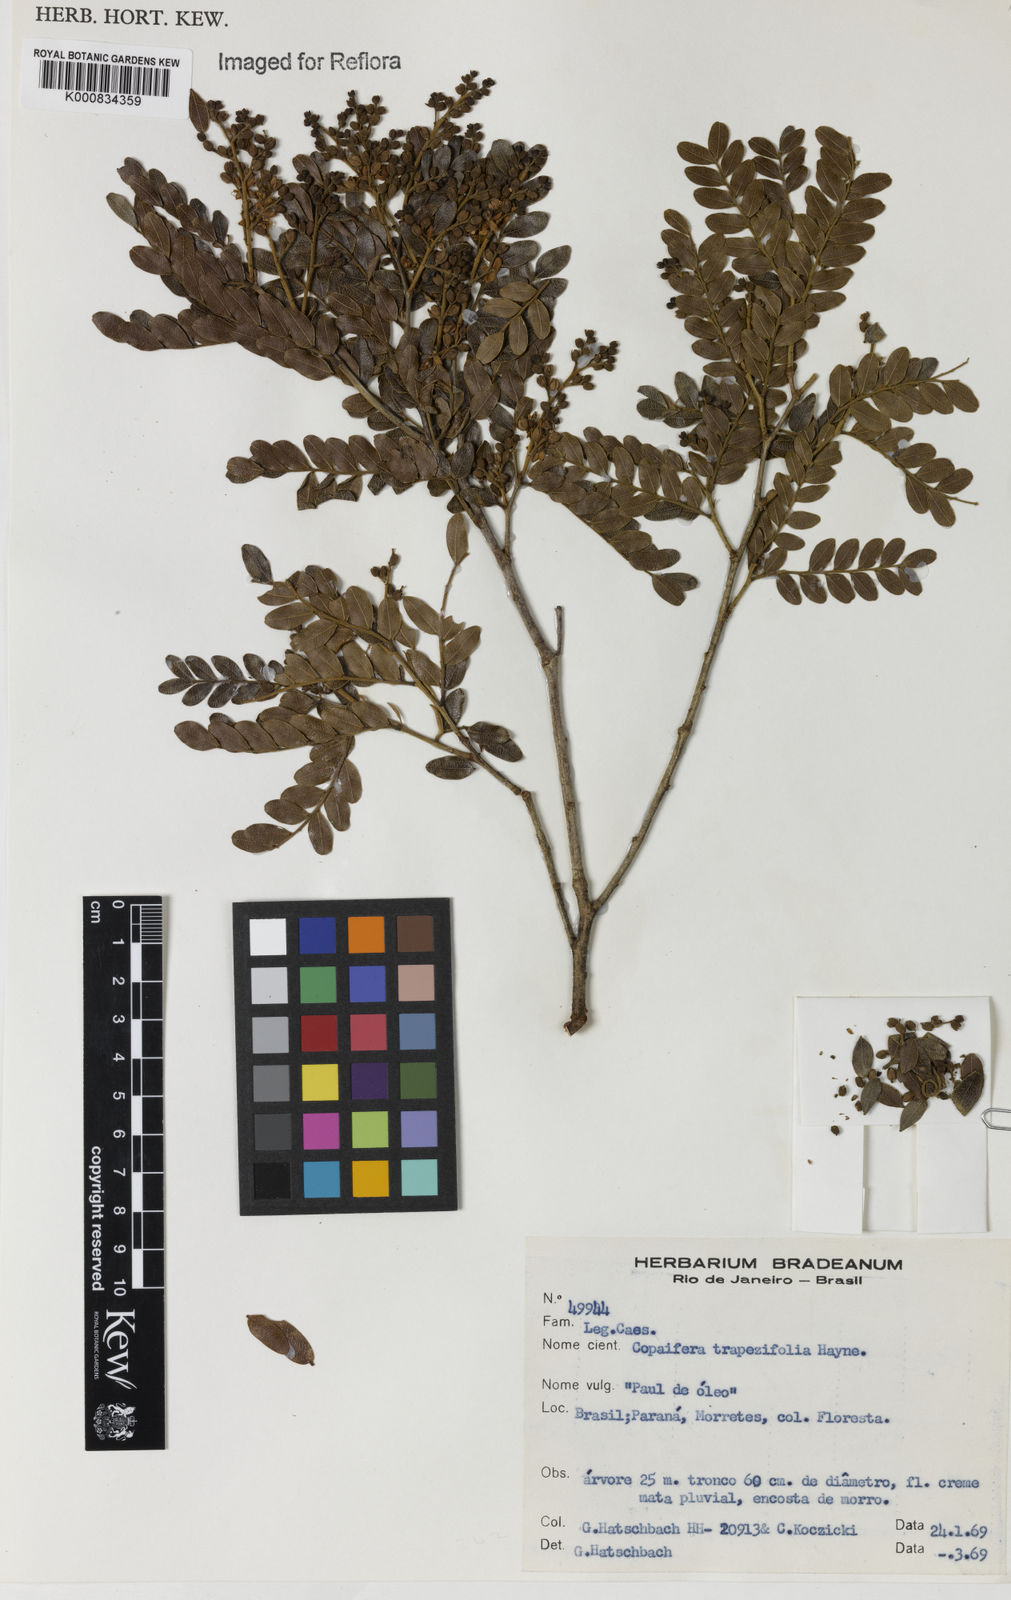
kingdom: Plantae
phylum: Tracheophyta
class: Magnoliopsida
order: Fabales
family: Fabaceae
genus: Copaifera
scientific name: Copaifera trapezifolia
